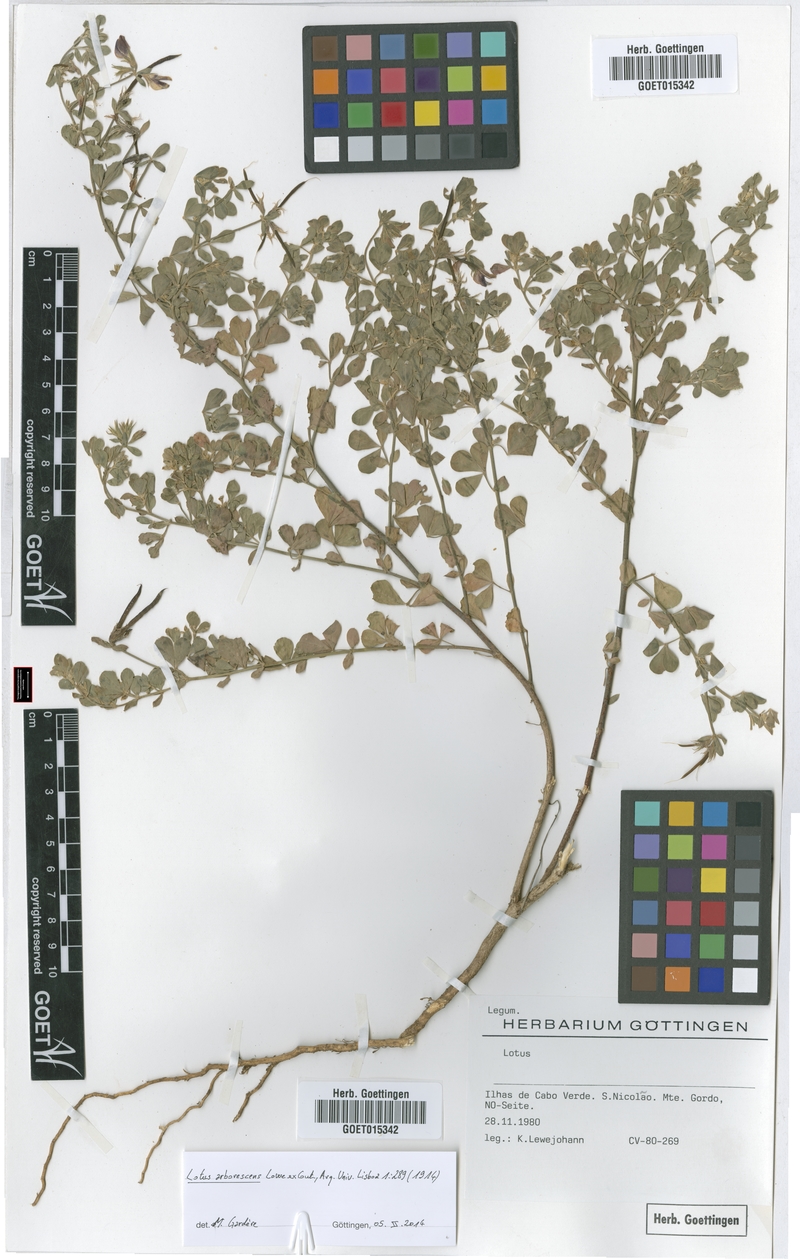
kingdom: Plantae
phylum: Tracheophyta
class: Magnoliopsida
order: Fabales
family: Fabaceae
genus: Lotus
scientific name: Lotus purpureus
